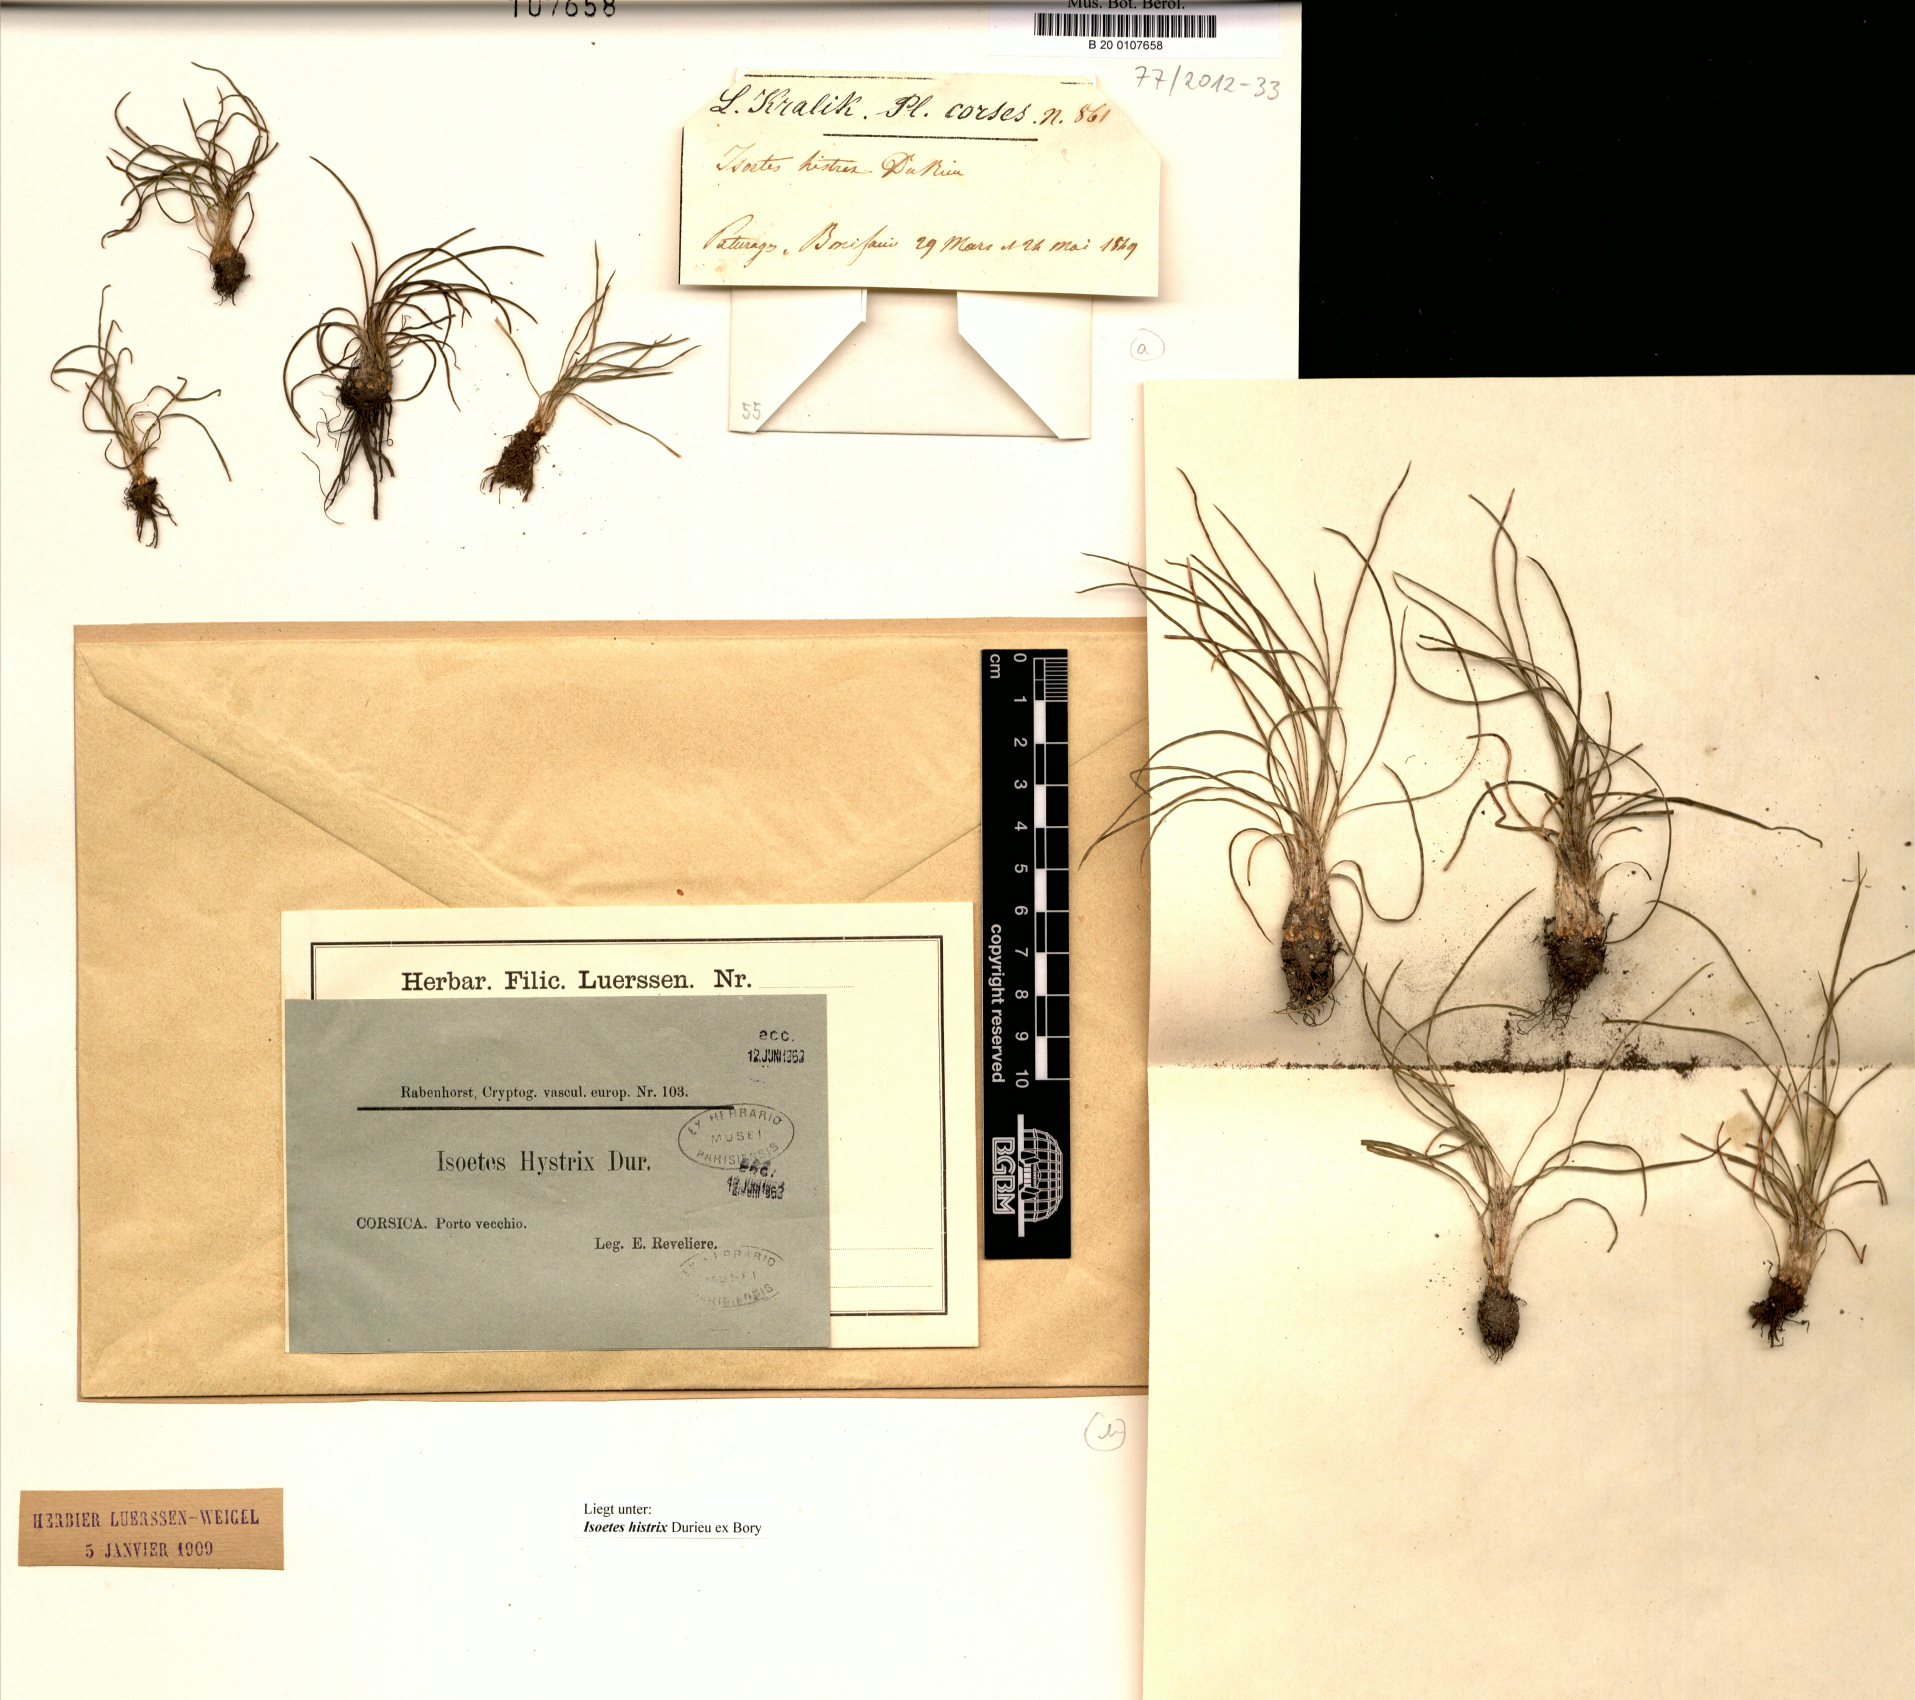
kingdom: Plantae
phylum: Tracheophyta
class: Lycopodiopsida
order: Isoetales
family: Isoetaceae
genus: Isoetes
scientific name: Isoetes histrix
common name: Land quillwort
